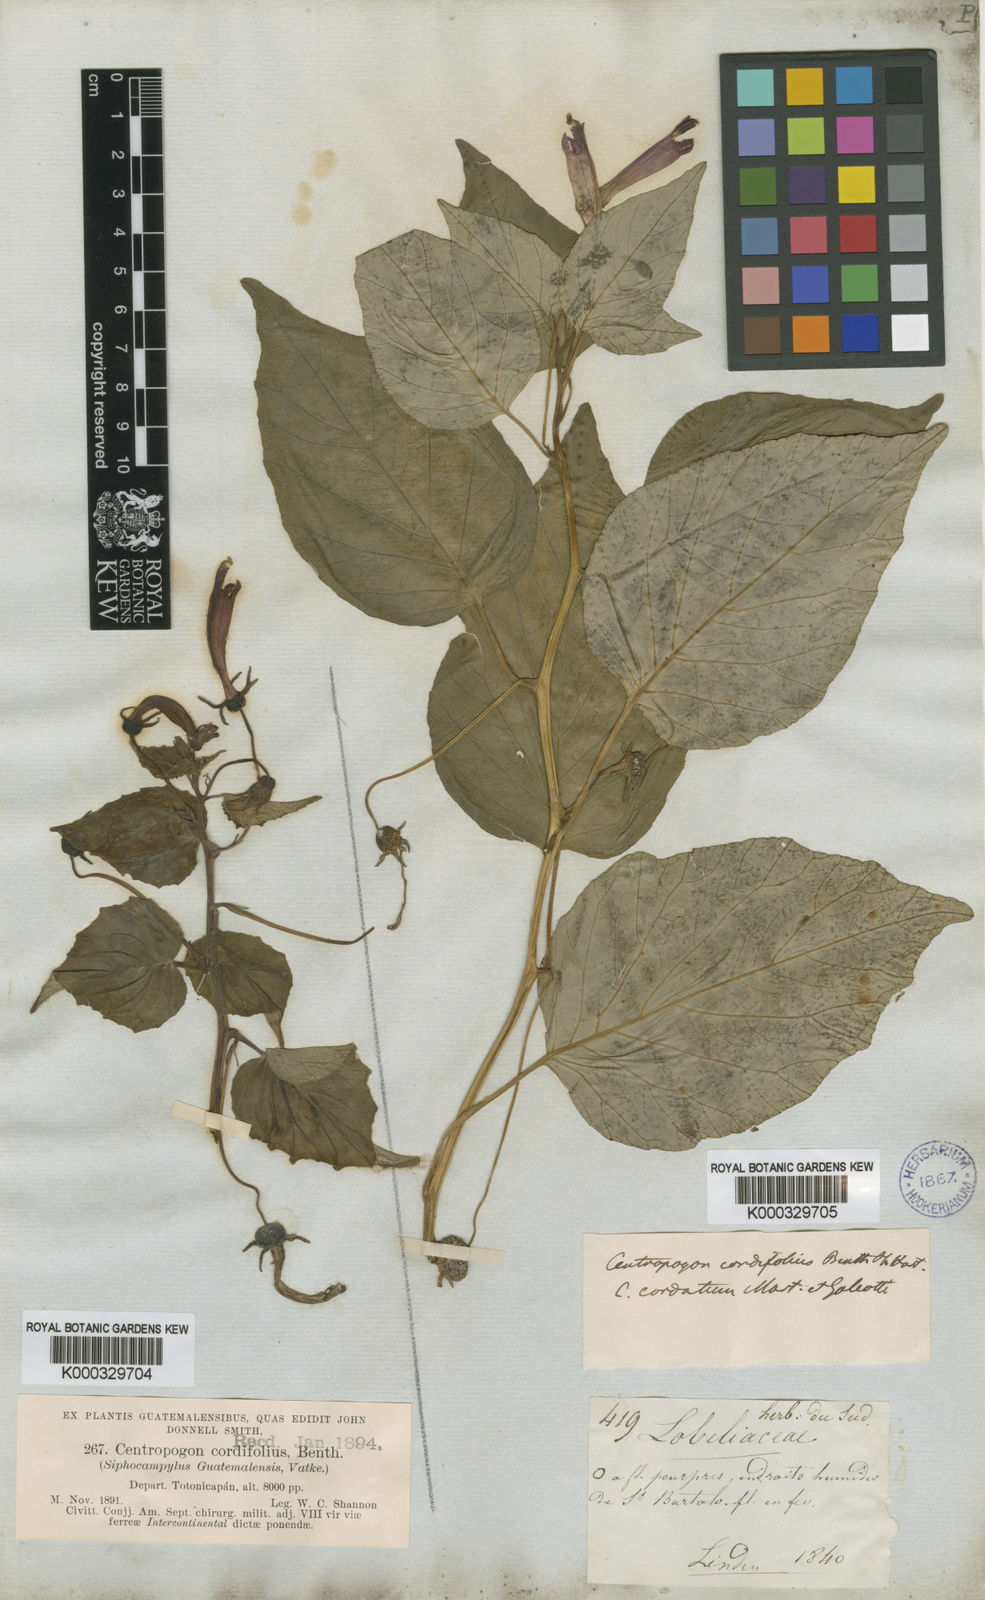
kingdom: Plantae
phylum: Tracheophyta
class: Magnoliopsida
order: Asterales
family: Campanulaceae
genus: Centropogon
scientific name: Centropogon cordifolius
